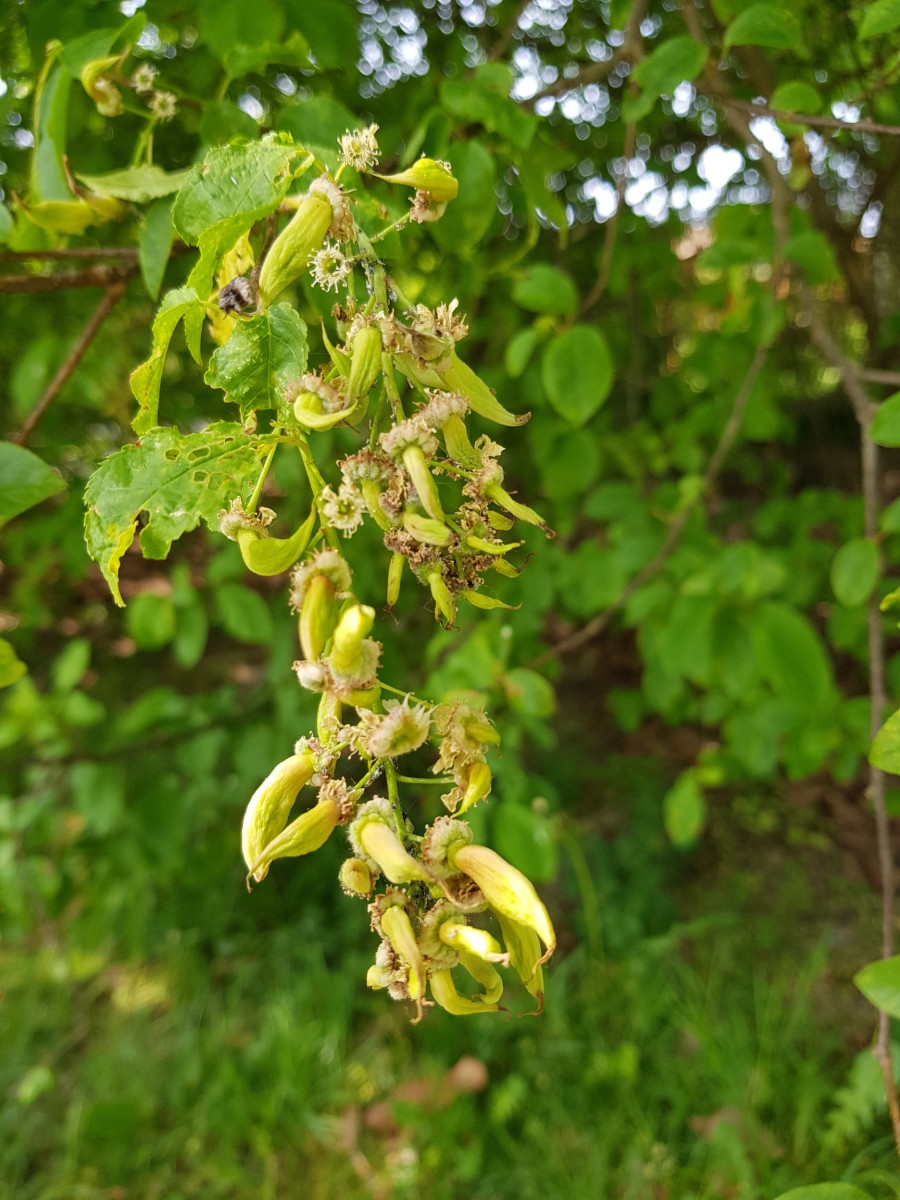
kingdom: Fungi
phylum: Ascomycota
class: Taphrinomycetes
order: Taphrinales
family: Taphrinaceae
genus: Taphrina
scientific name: Taphrina padi
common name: Bird cherry pocket
